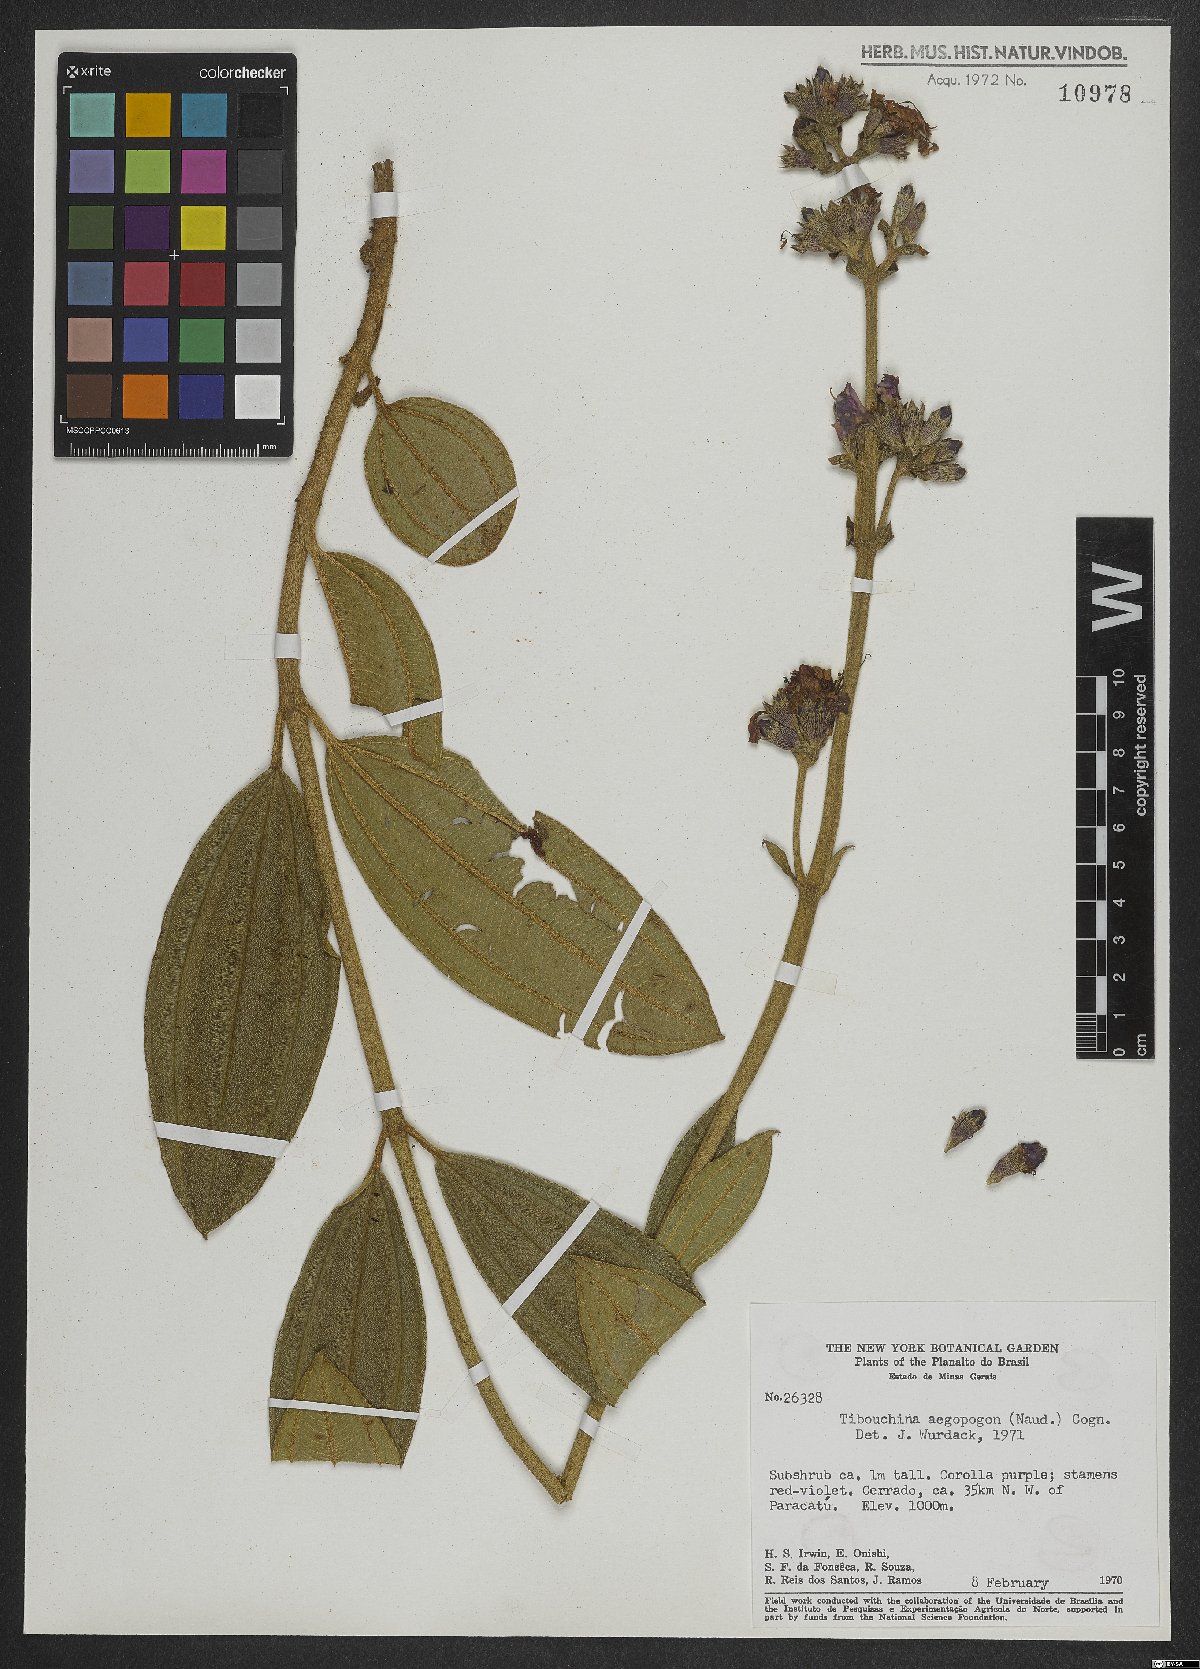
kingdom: Plantae
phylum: Tracheophyta
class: Magnoliopsida
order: Myrtales
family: Melastomataceae
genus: Pleroma
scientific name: Pleroma aegopogon
